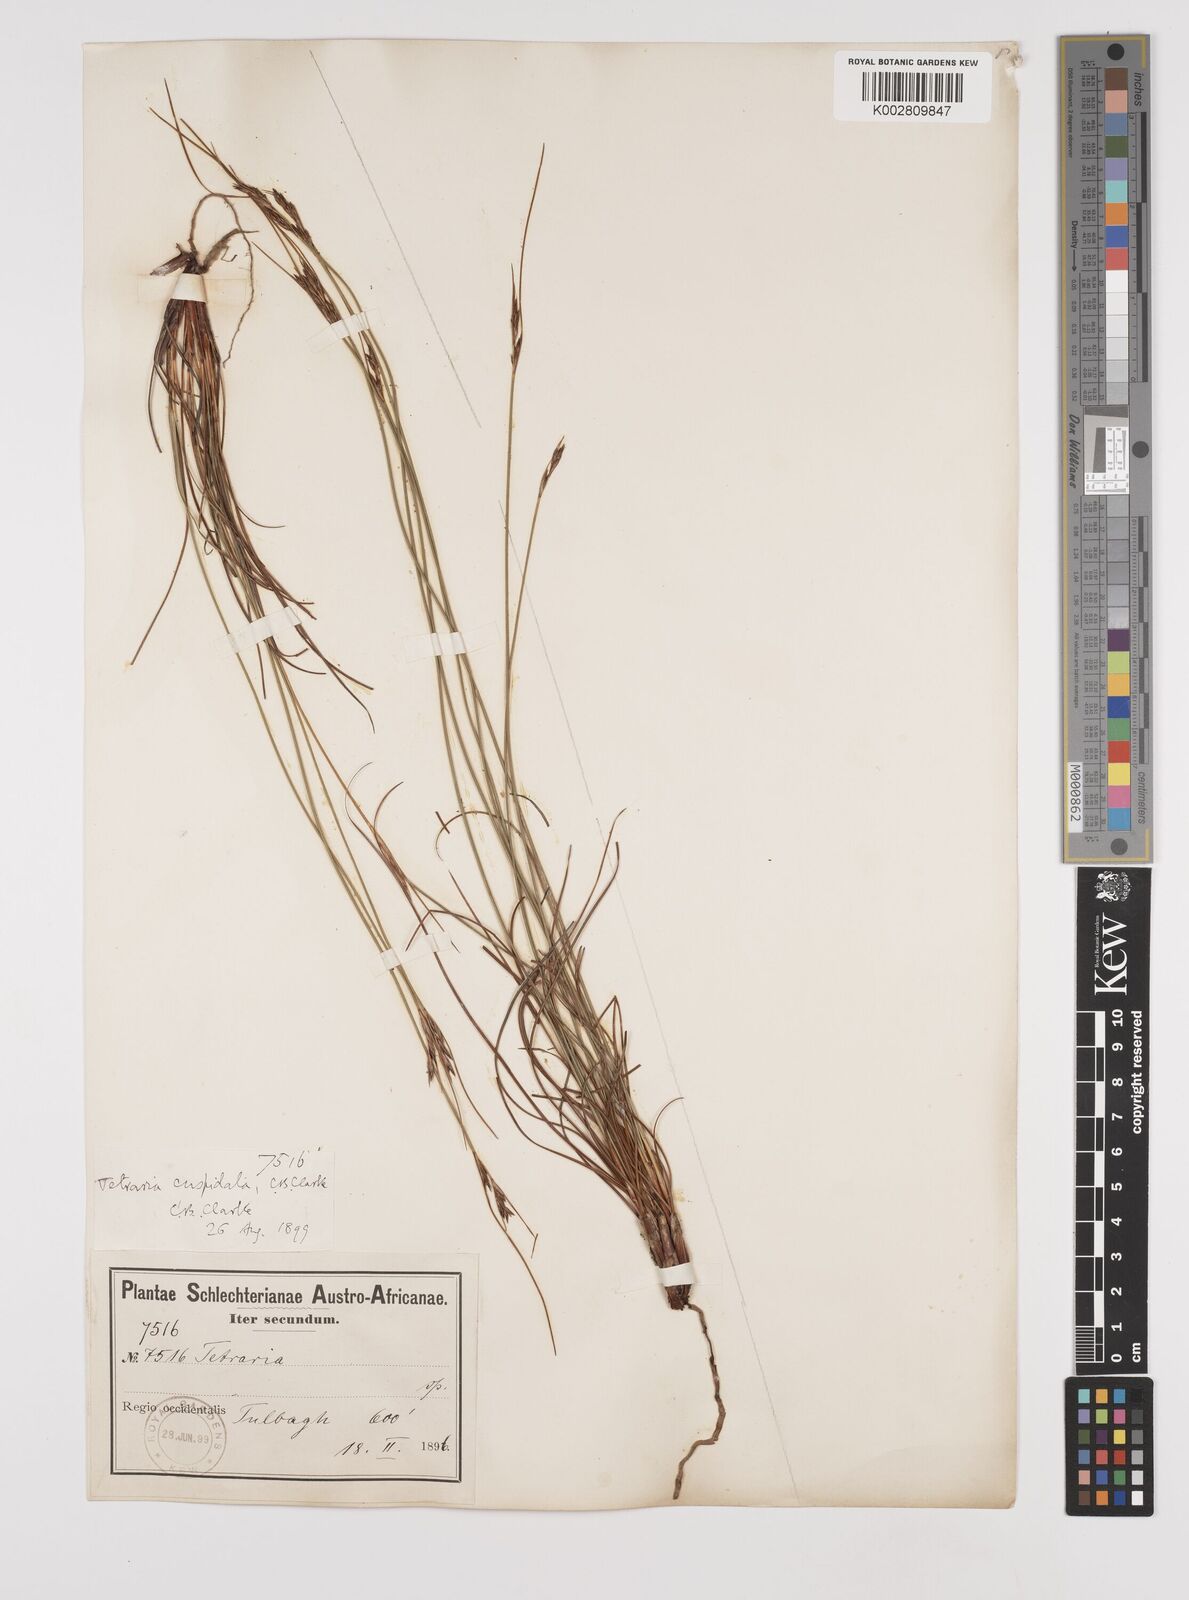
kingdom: Plantae
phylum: Tracheophyta
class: Liliopsida
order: Poales
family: Cyperaceae
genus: Schoenus
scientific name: Schoenus pseudoloreus
